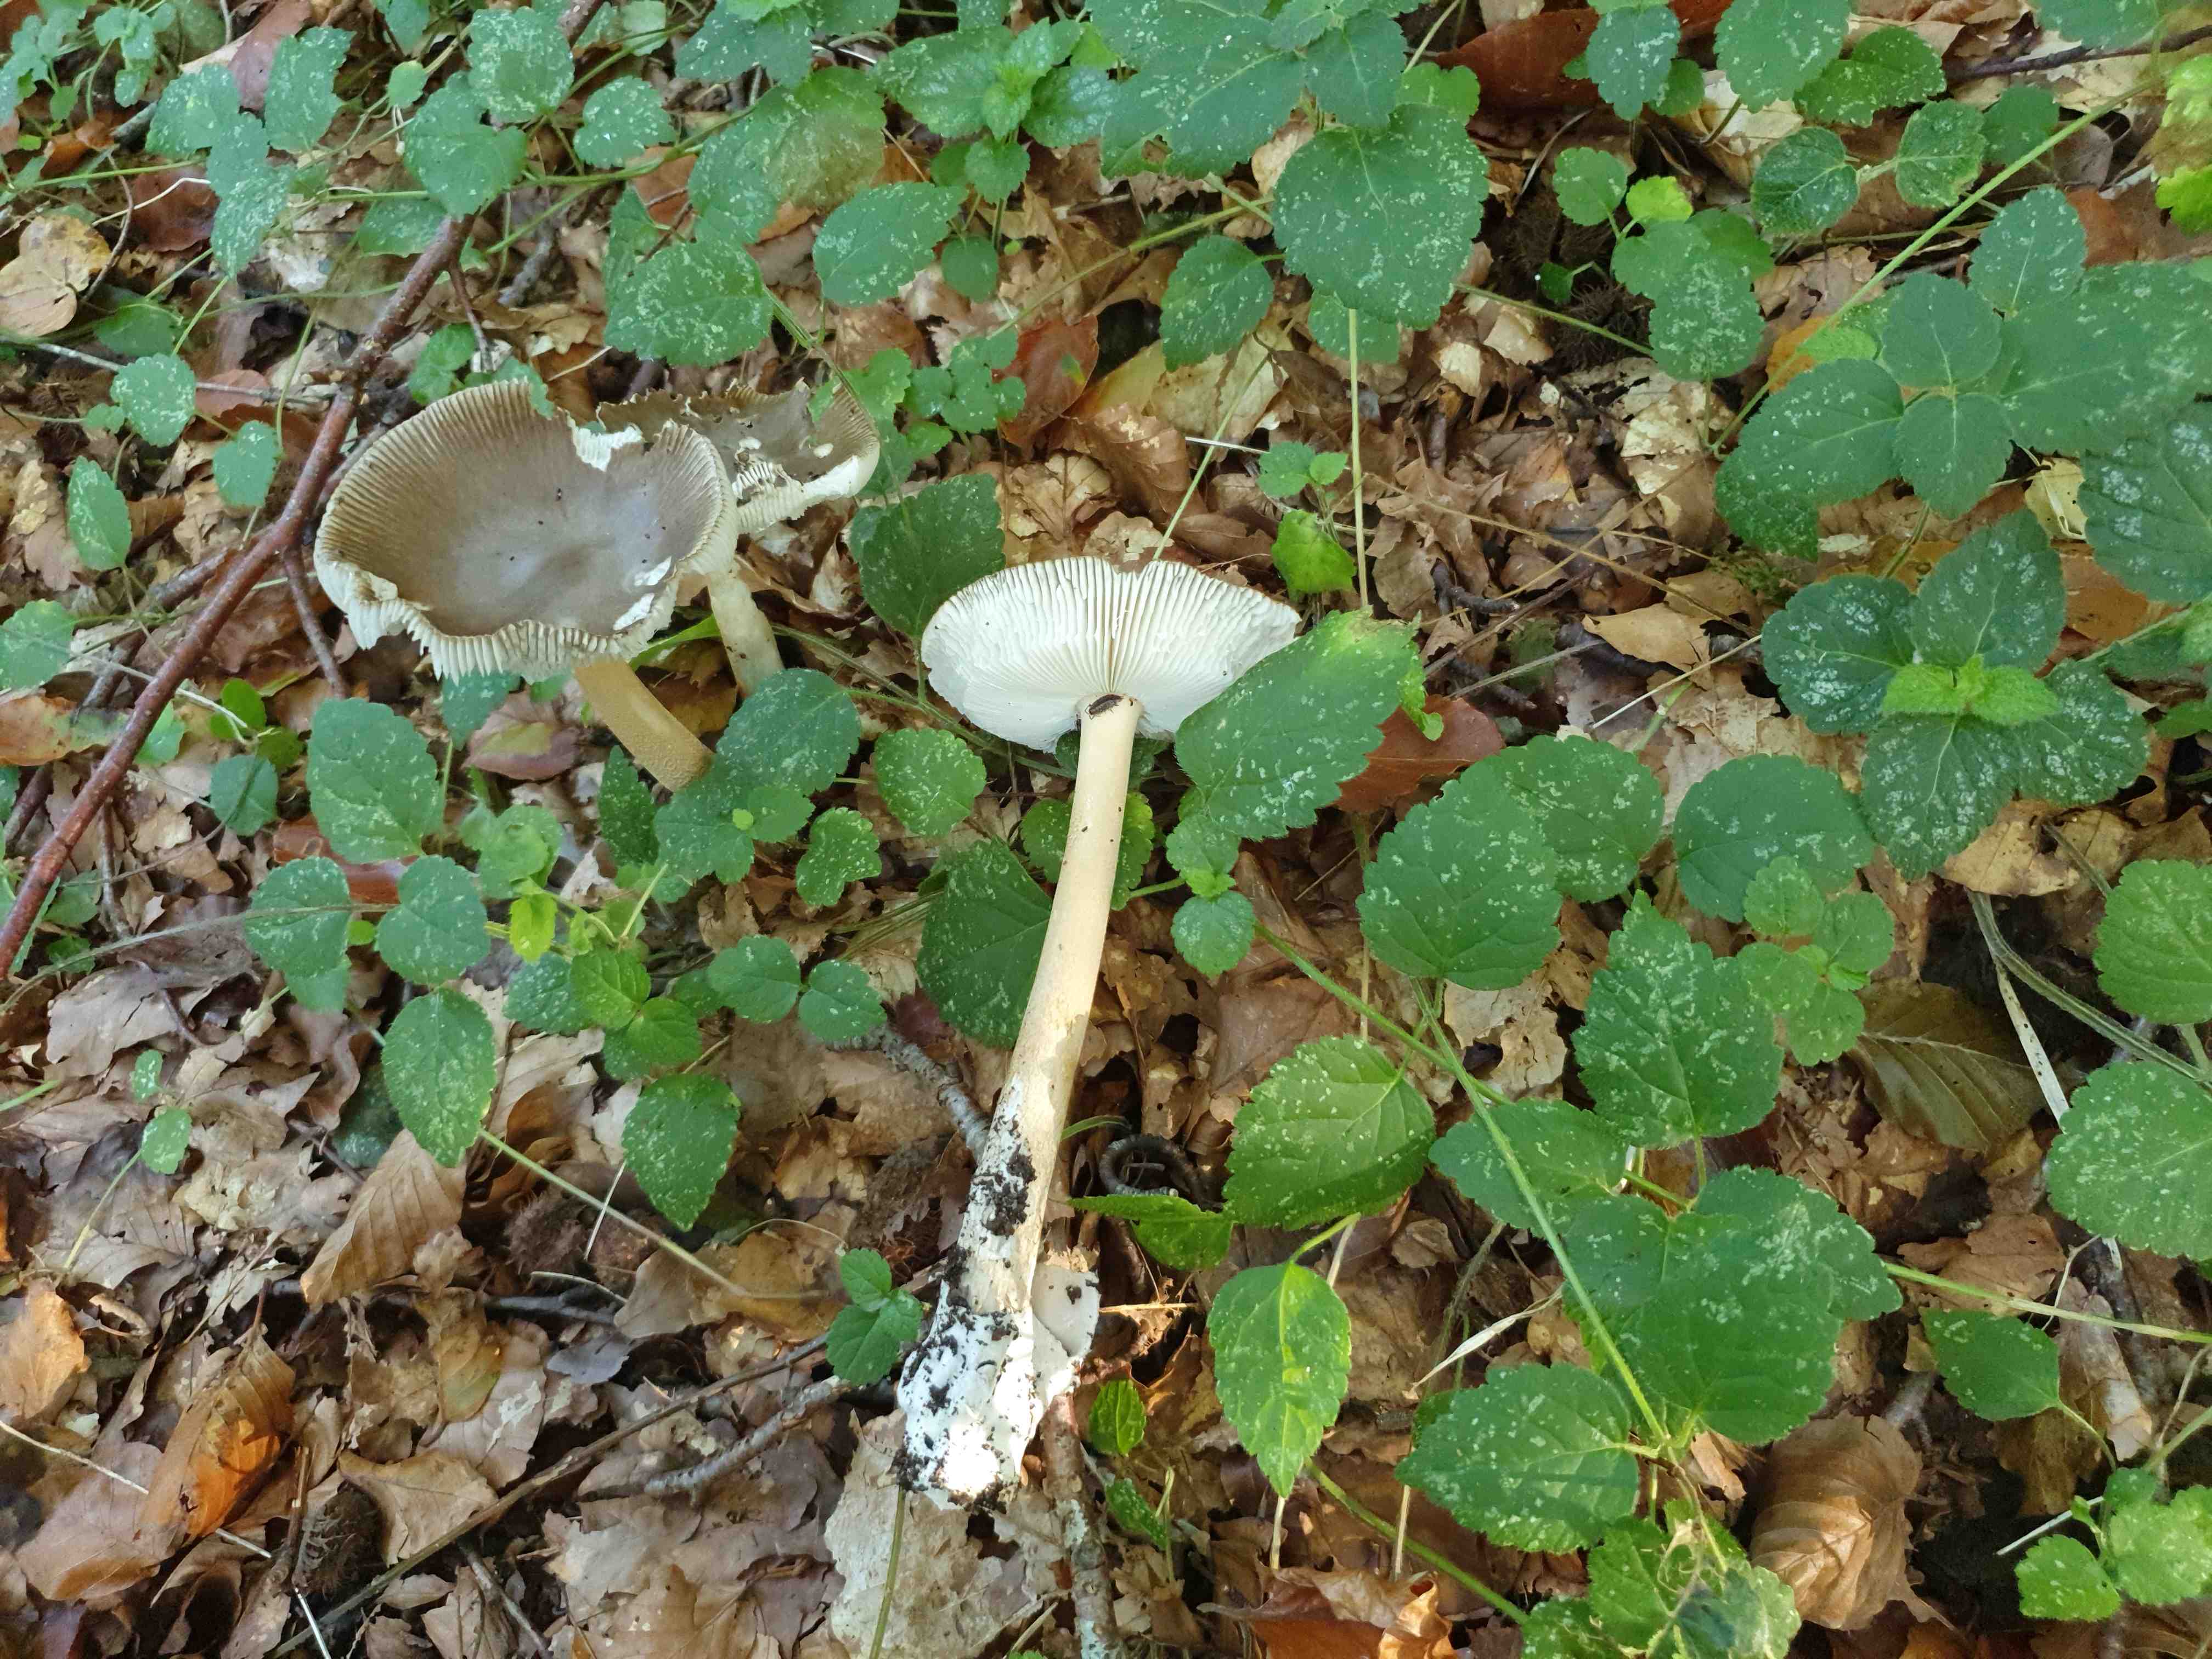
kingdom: Fungi
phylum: Basidiomycota
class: Agaricomycetes
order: Agaricales
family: Amanitaceae
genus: Amanita
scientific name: Amanita fulva
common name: brun kam-fluesvamp
